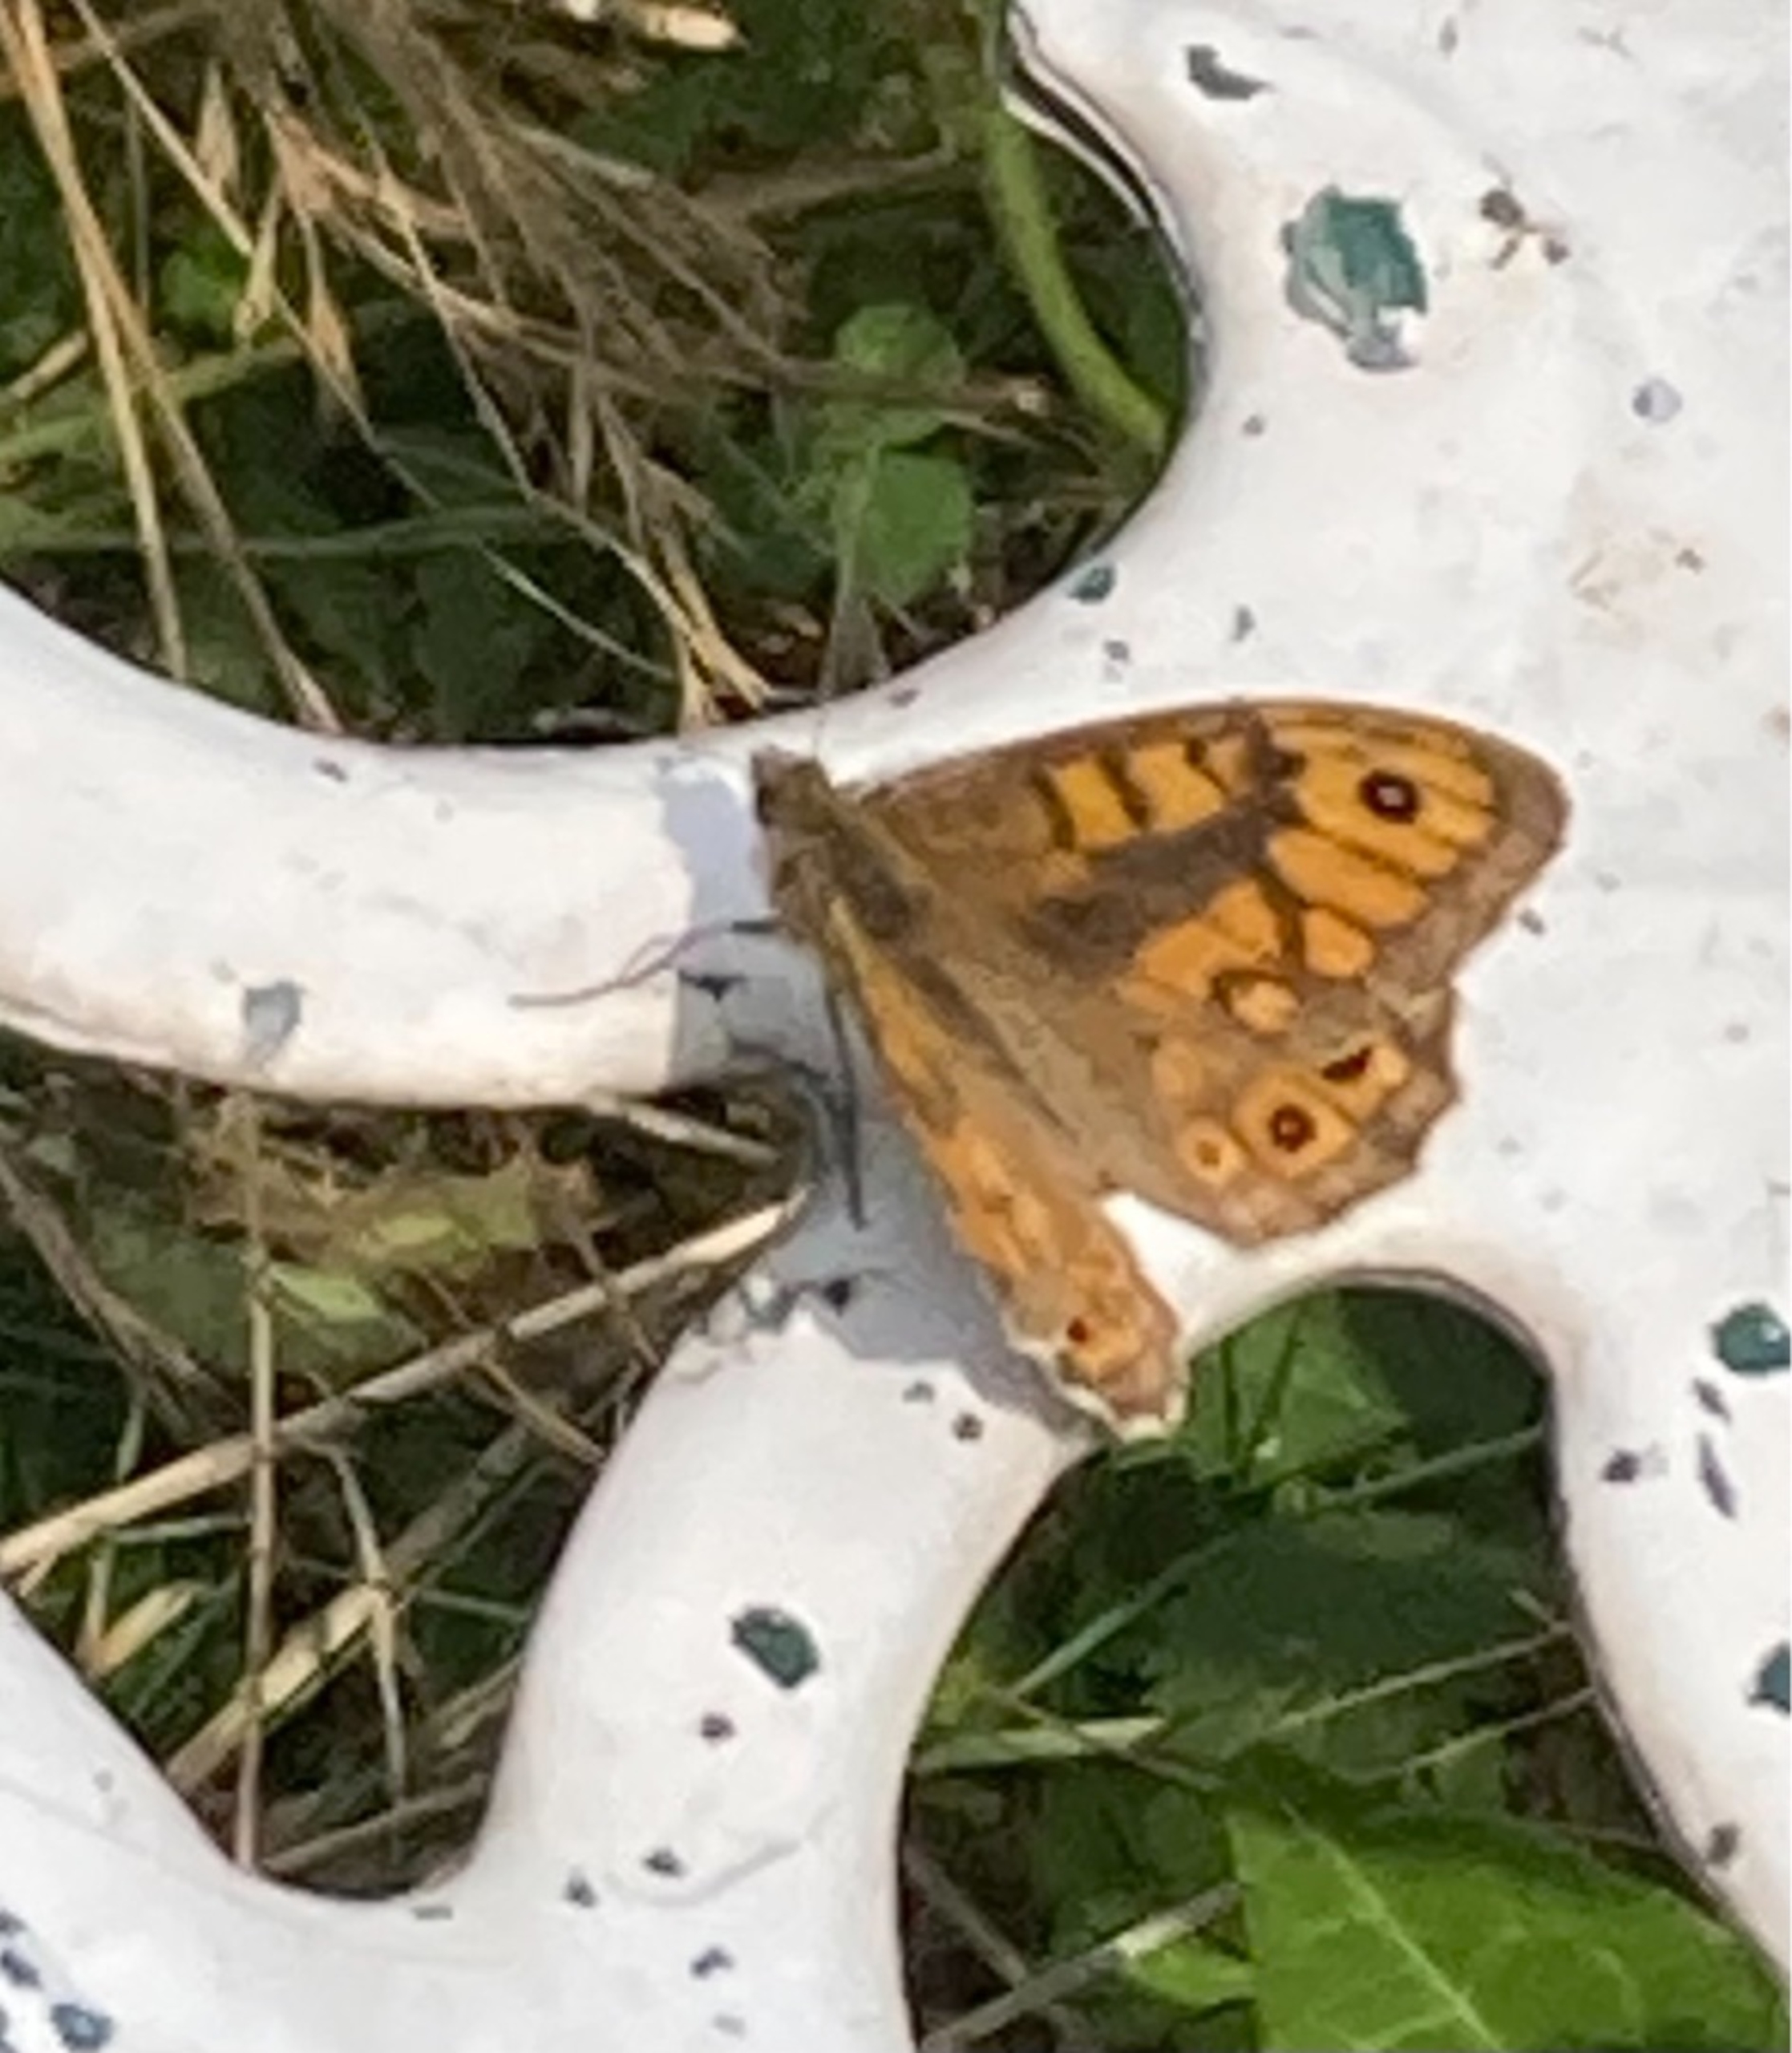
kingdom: Animalia
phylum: Arthropoda
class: Insecta
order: Lepidoptera
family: Nymphalidae
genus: Pararge
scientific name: Pararge Lasiommata megera
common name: Vejrandøje
